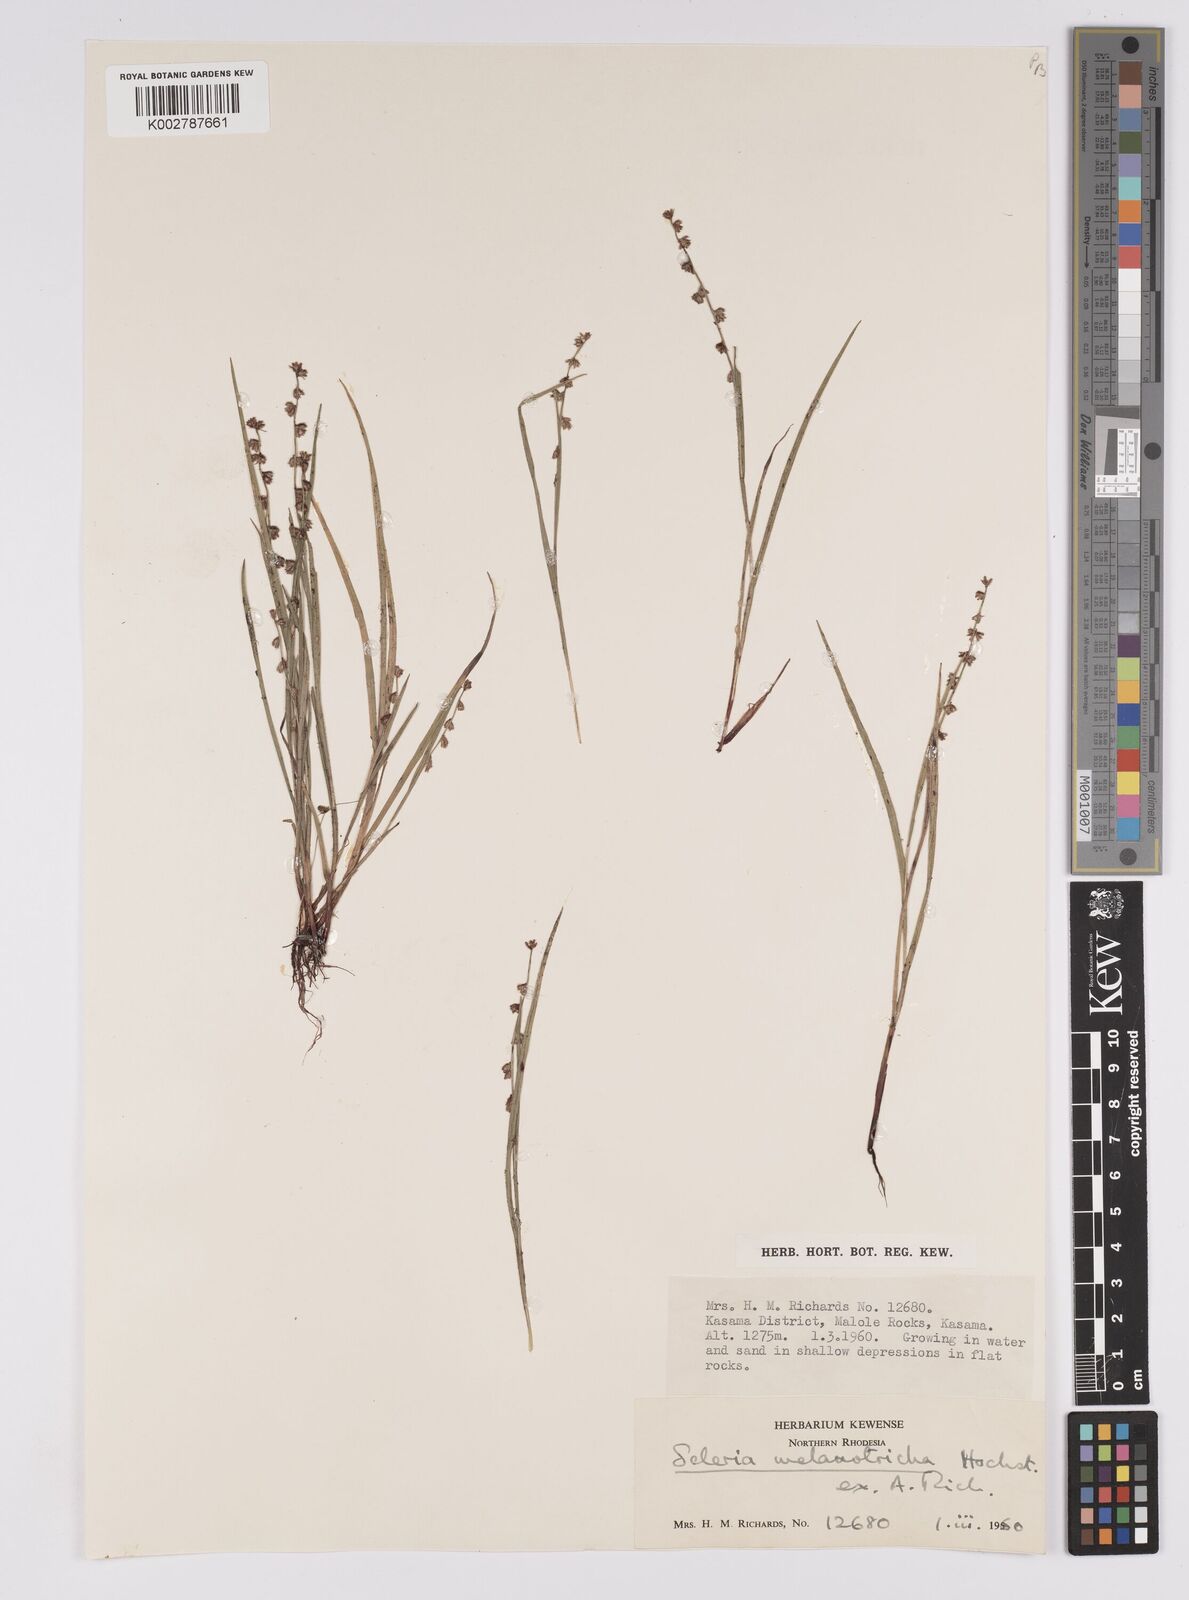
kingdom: Plantae
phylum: Tracheophyta
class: Liliopsida
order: Poales
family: Cyperaceae
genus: Scleria
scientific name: Scleria melanotricha
